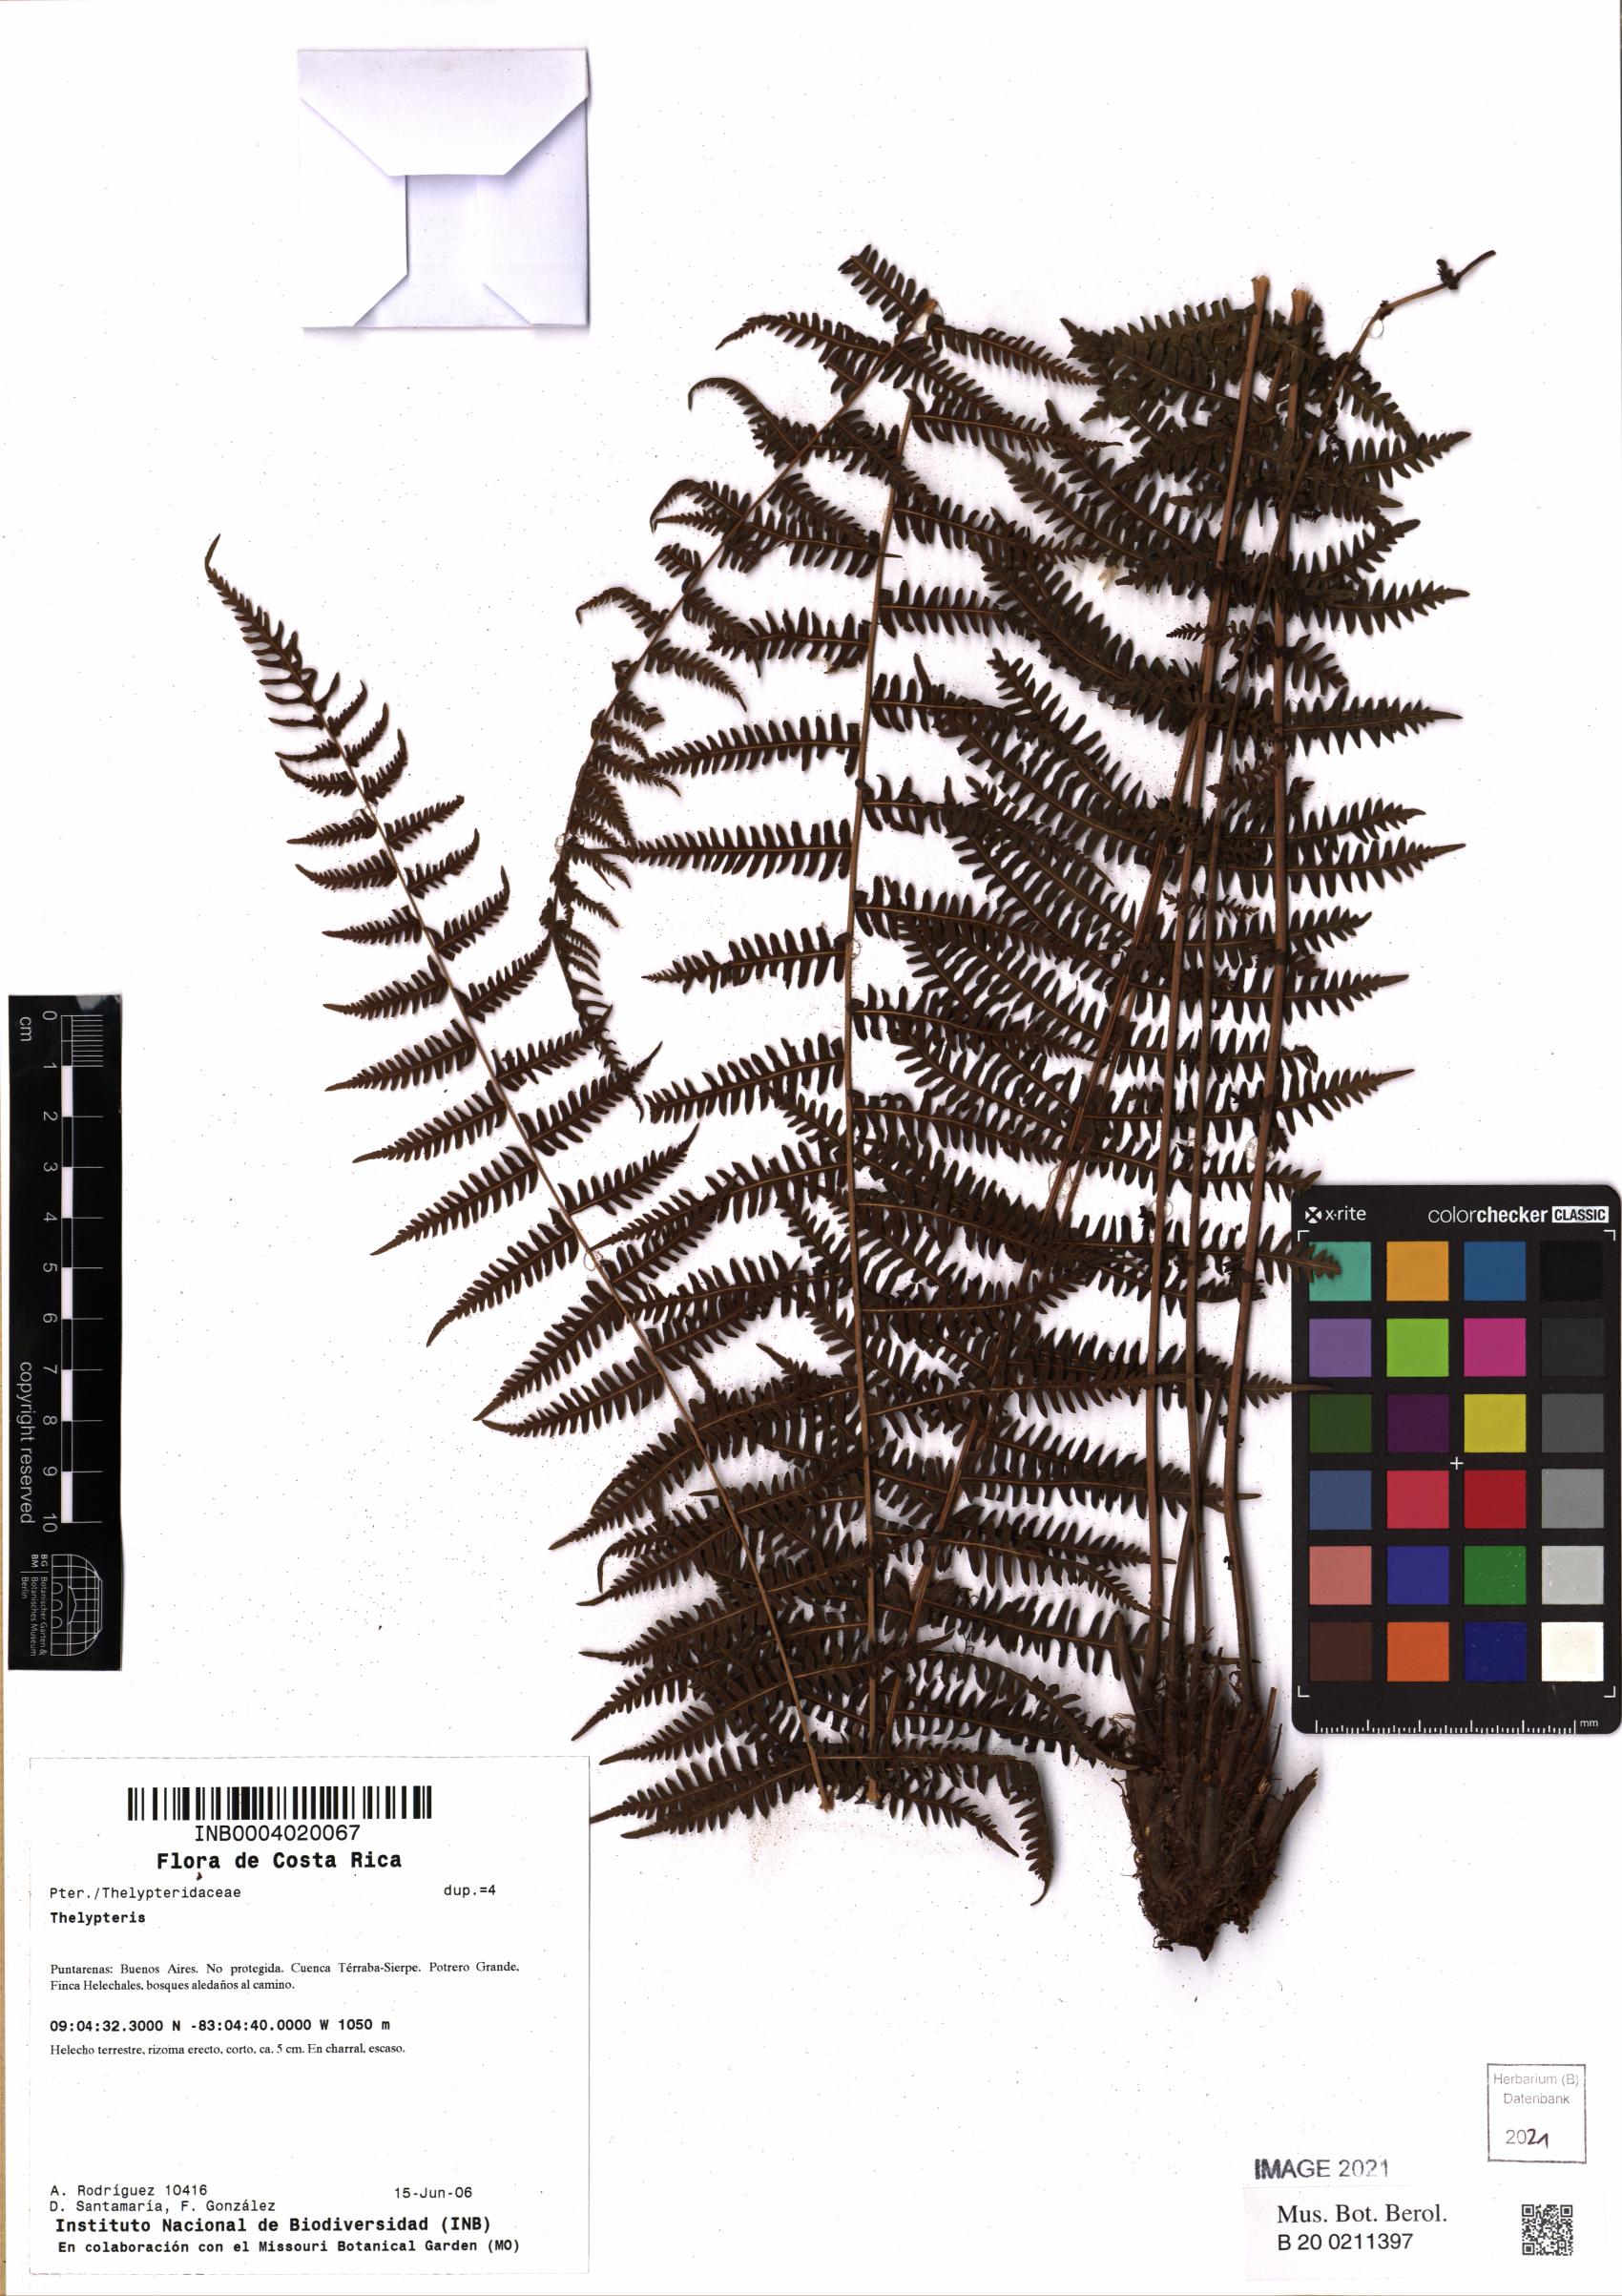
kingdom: Plantae
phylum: Tracheophyta
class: Polypodiopsida
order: Polypodiales
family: Thelypteridaceae
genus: Thelypteris
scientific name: Thelypteris
